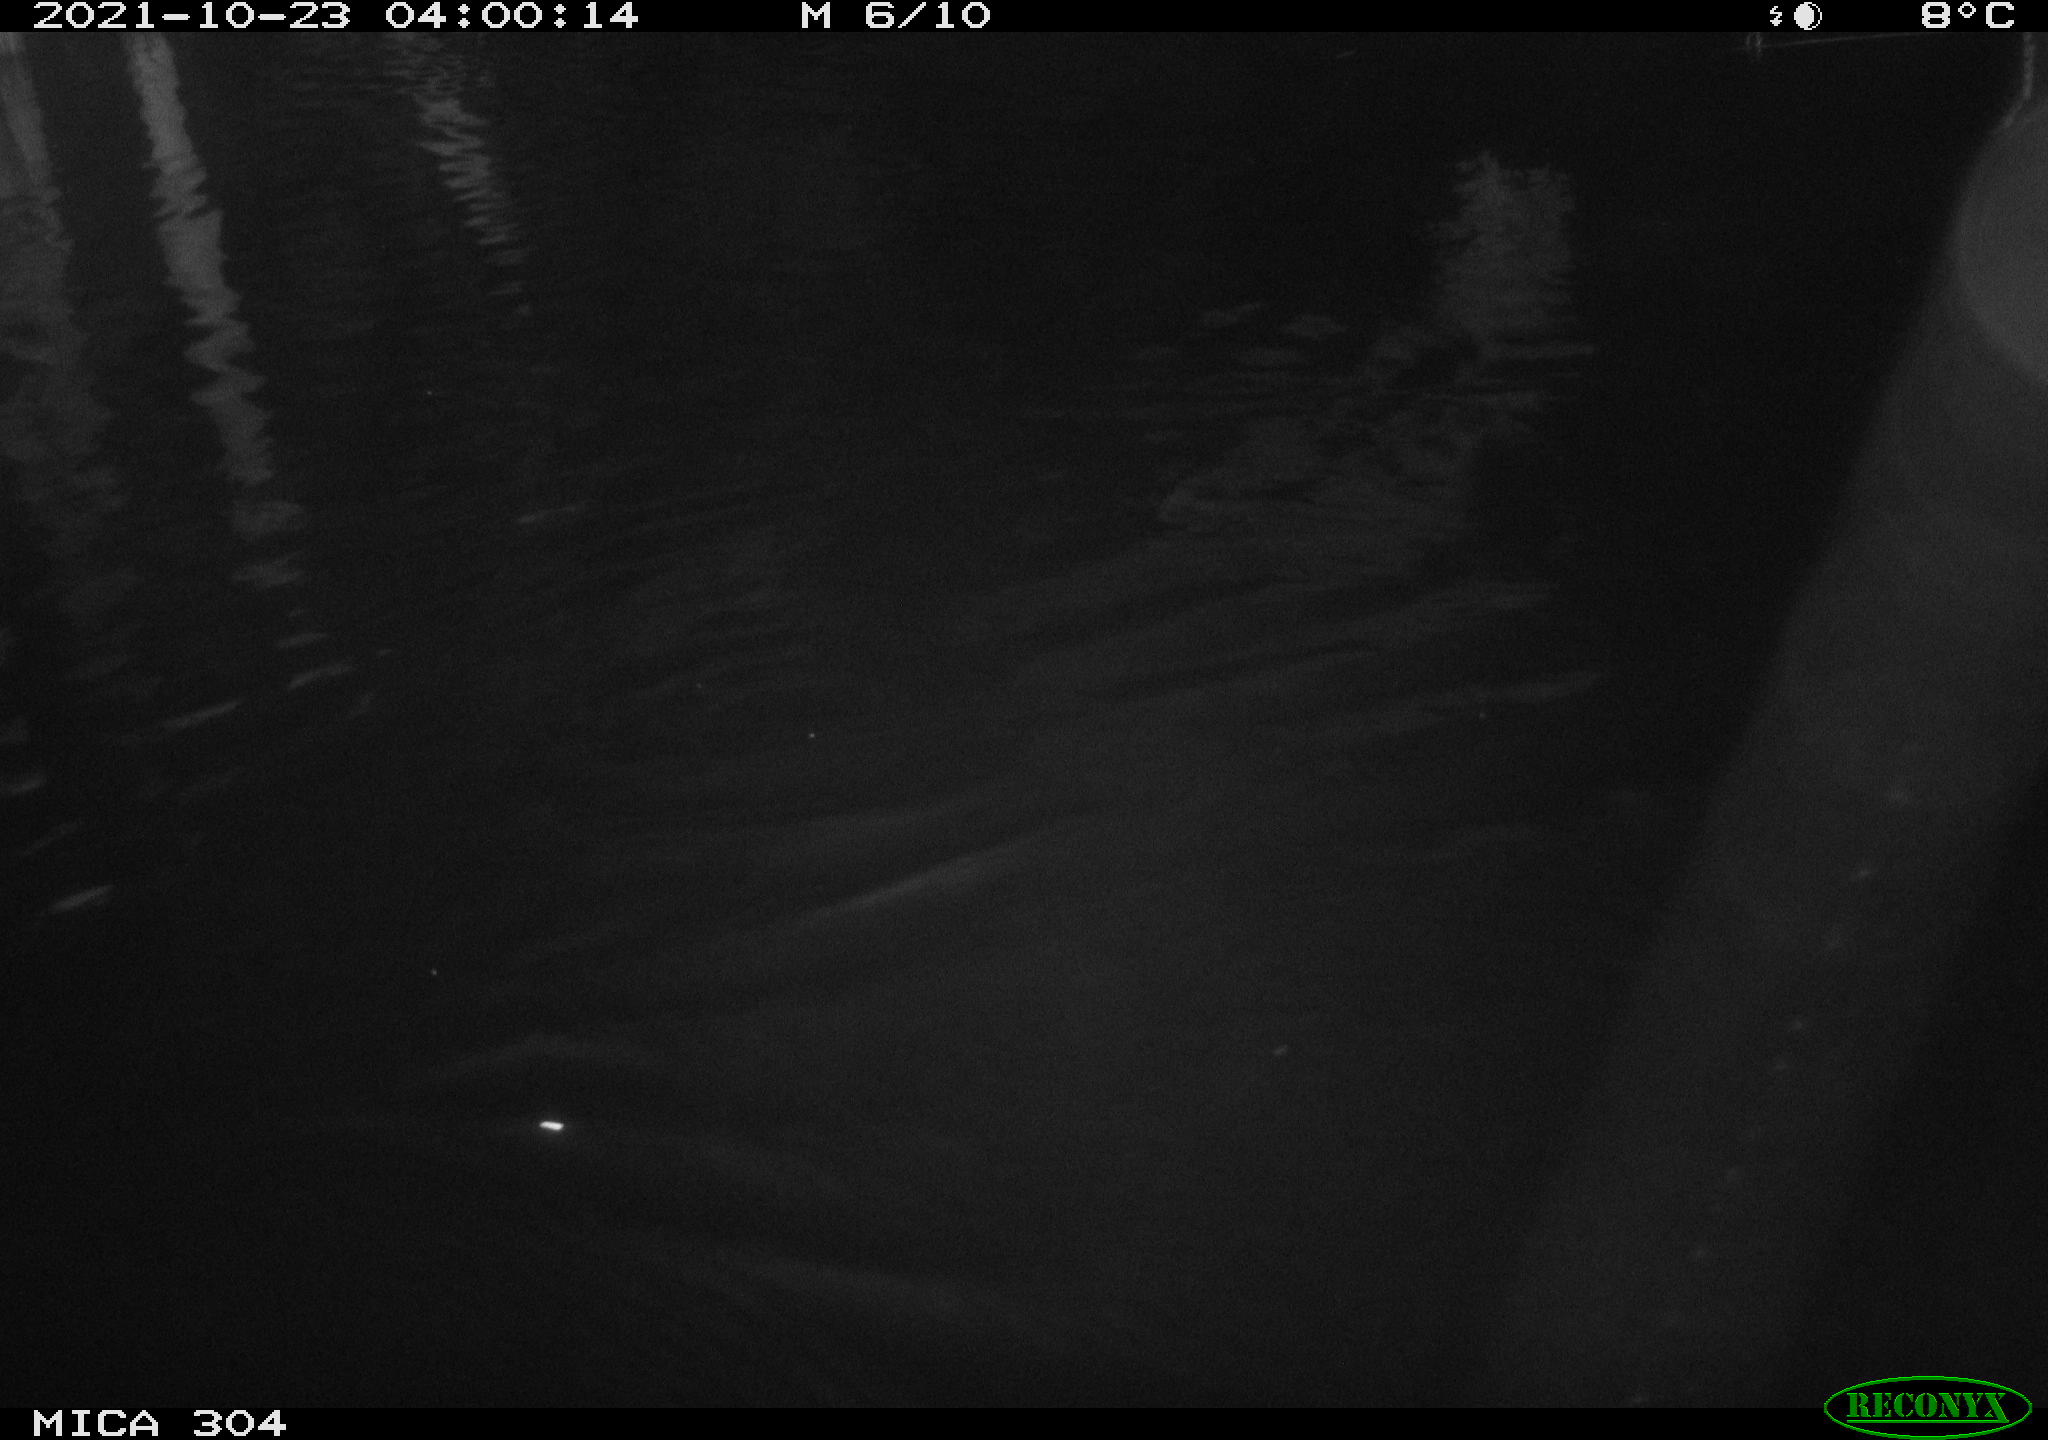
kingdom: Animalia
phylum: Chordata
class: Mammalia
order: Rodentia
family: Cricetidae
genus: Ondatra
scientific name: Ondatra zibethicus
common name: Muskrat
